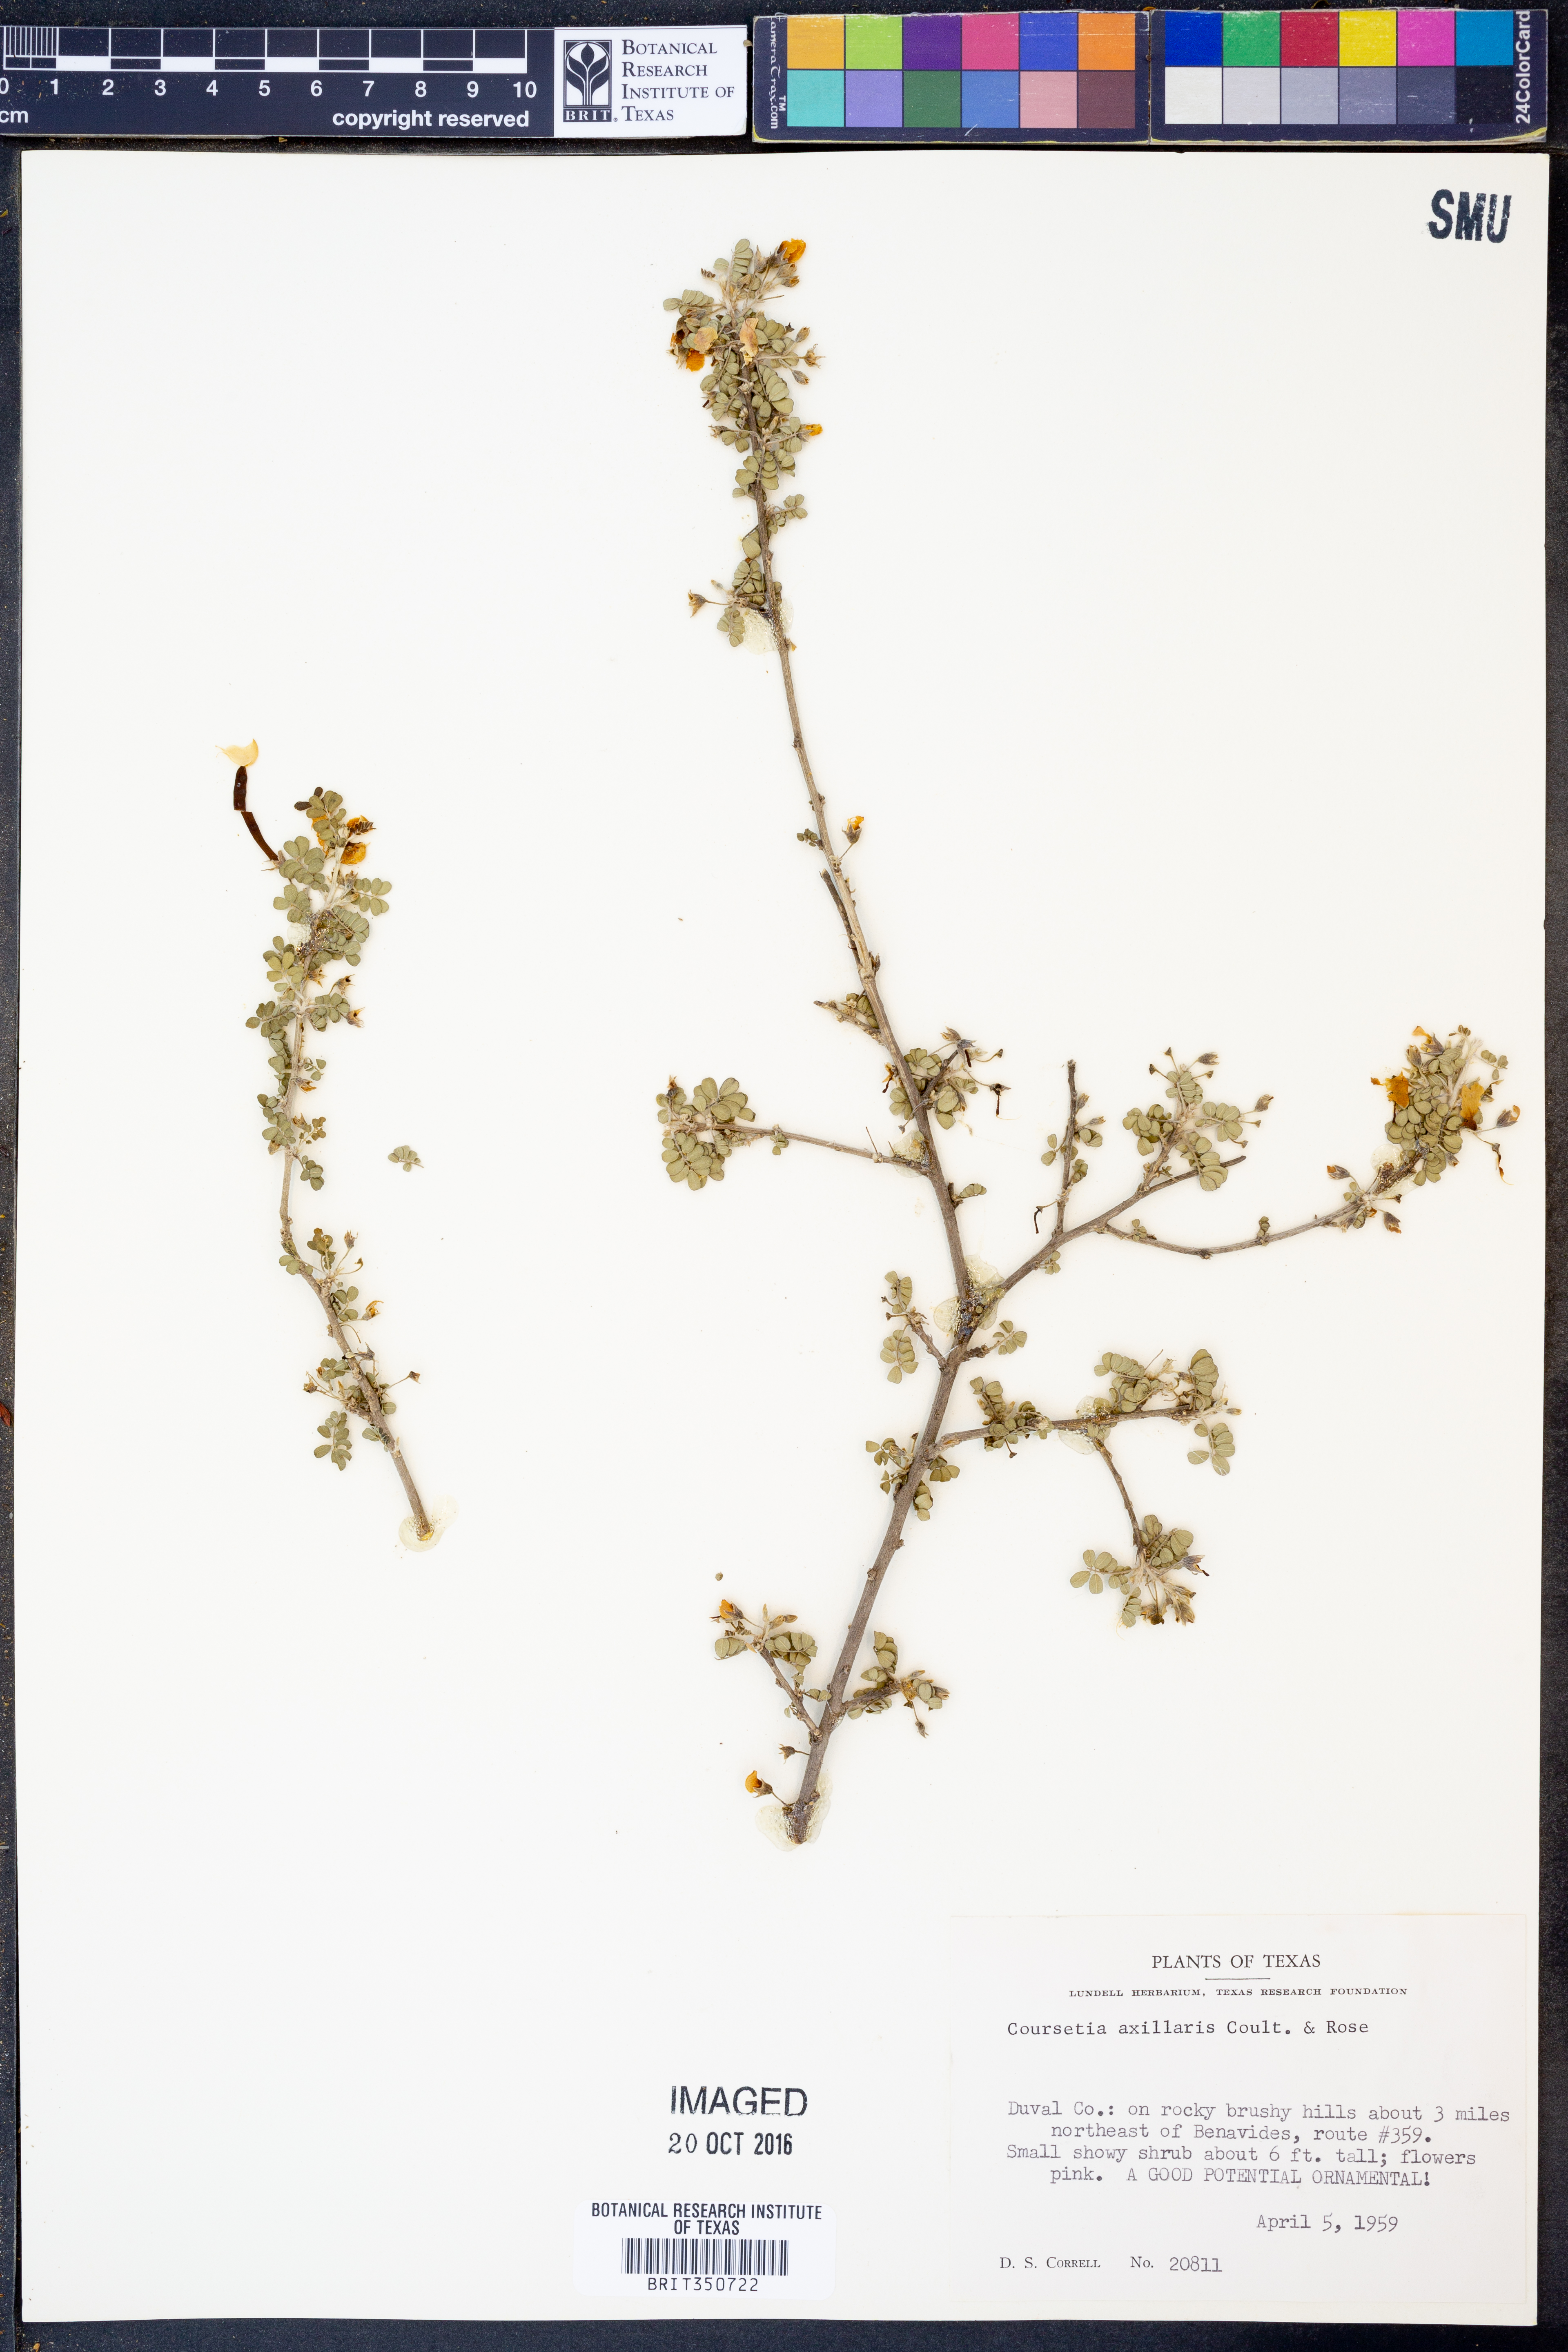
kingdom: Plantae
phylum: Tracheophyta
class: Magnoliopsida
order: Fabales
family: Fabaceae
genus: Coursetia
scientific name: Coursetia axillaris
